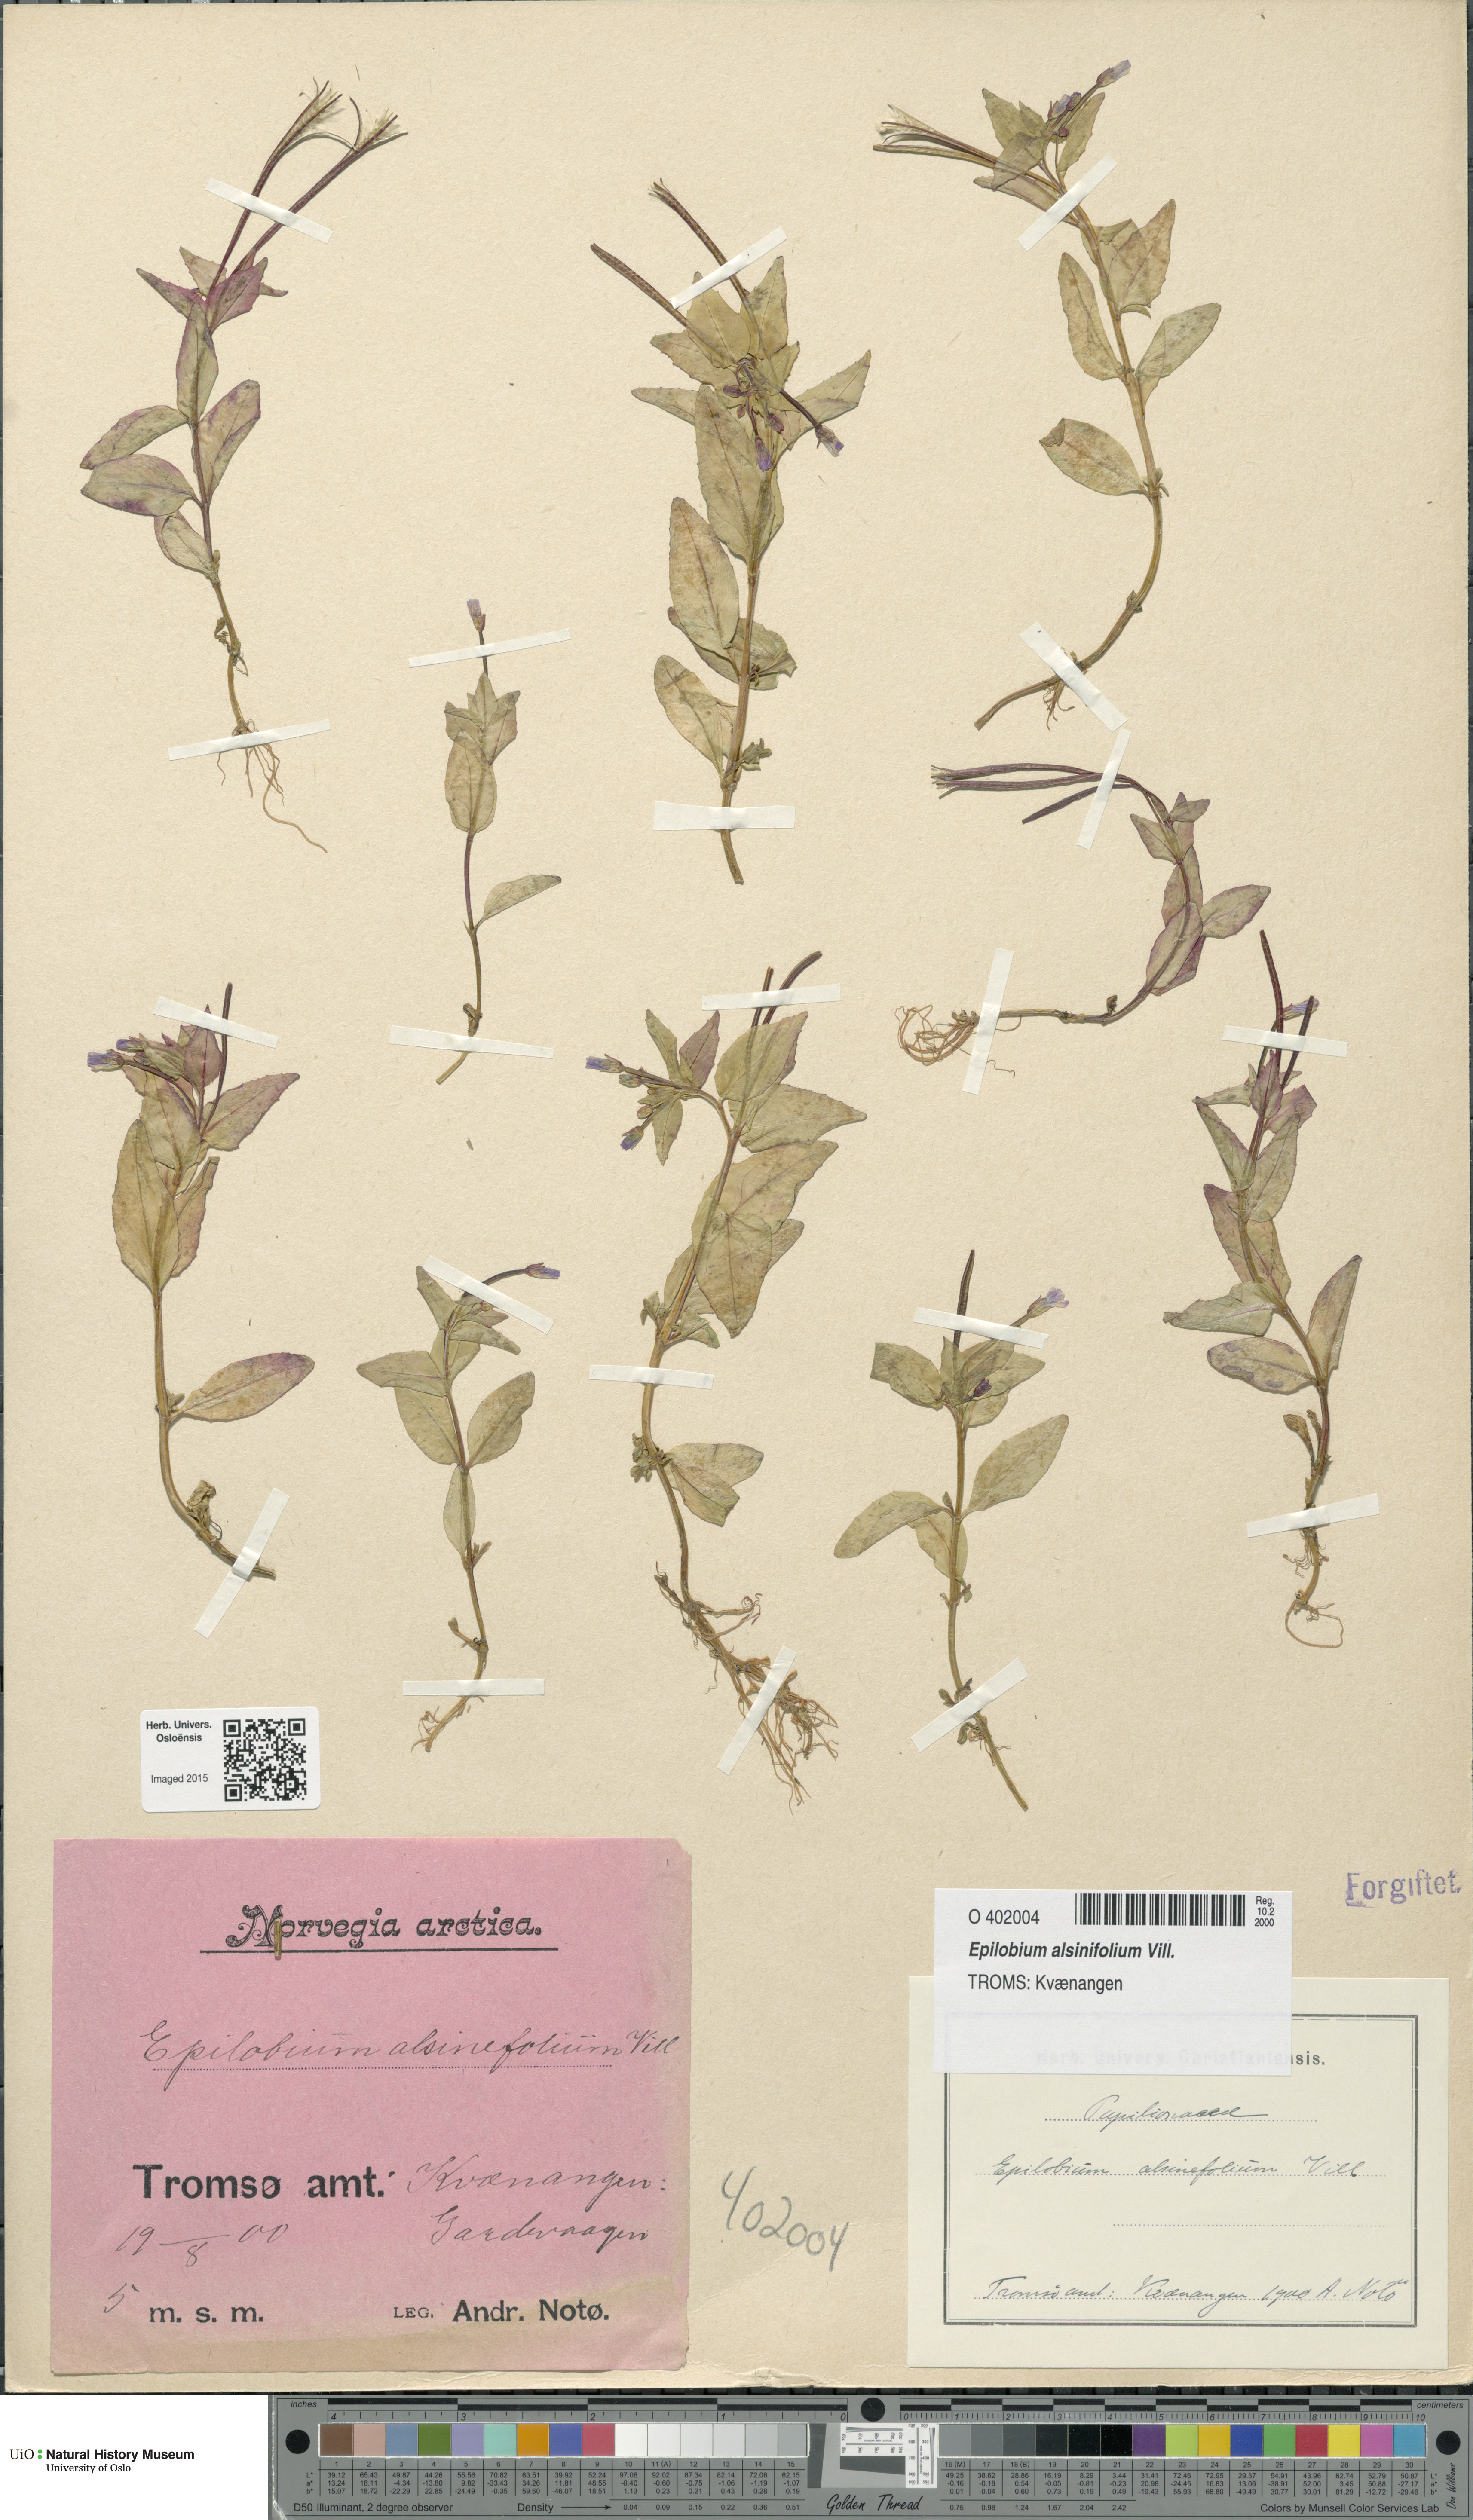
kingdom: Plantae
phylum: Tracheophyta
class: Magnoliopsida
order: Myrtales
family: Onagraceae
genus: Epilobium
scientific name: Epilobium alsinifolium
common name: Chickweed willowherb
